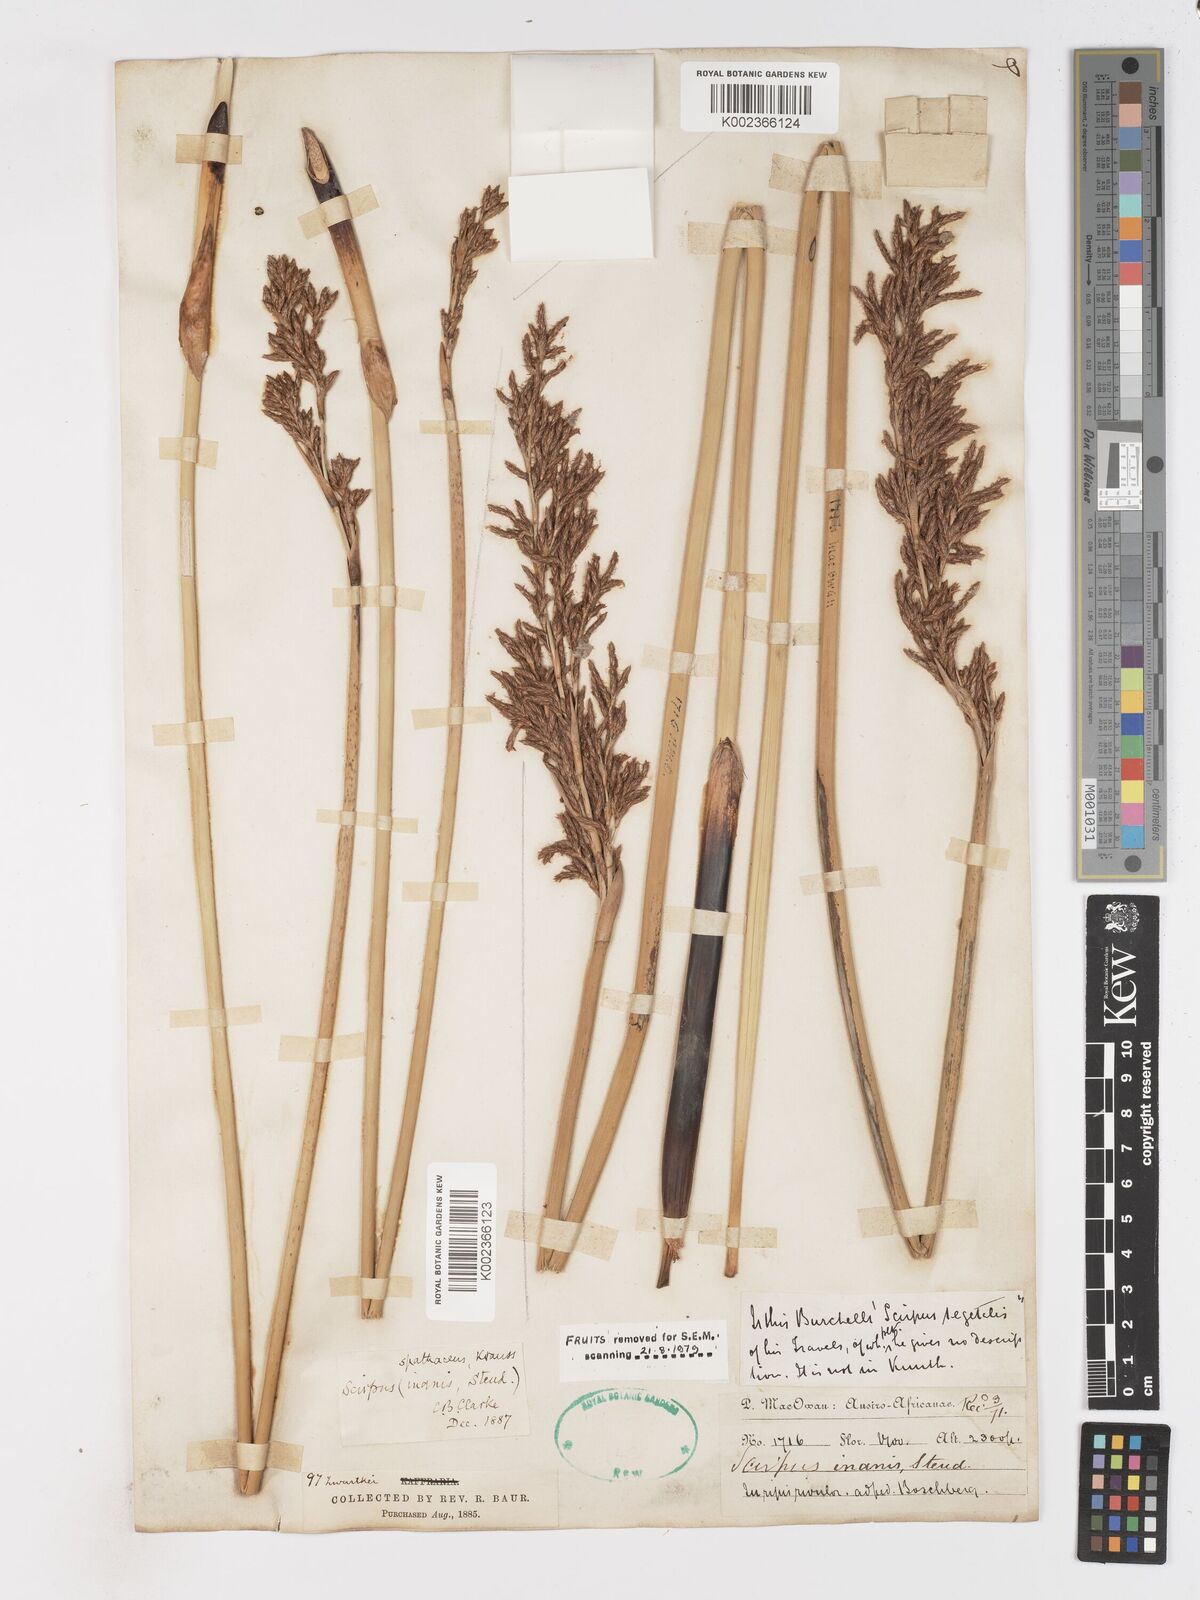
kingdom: Plantae
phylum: Tracheophyta
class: Liliopsida
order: Poales
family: Cyperaceae
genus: Pseudoschoenus
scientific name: Pseudoschoenus inanis
